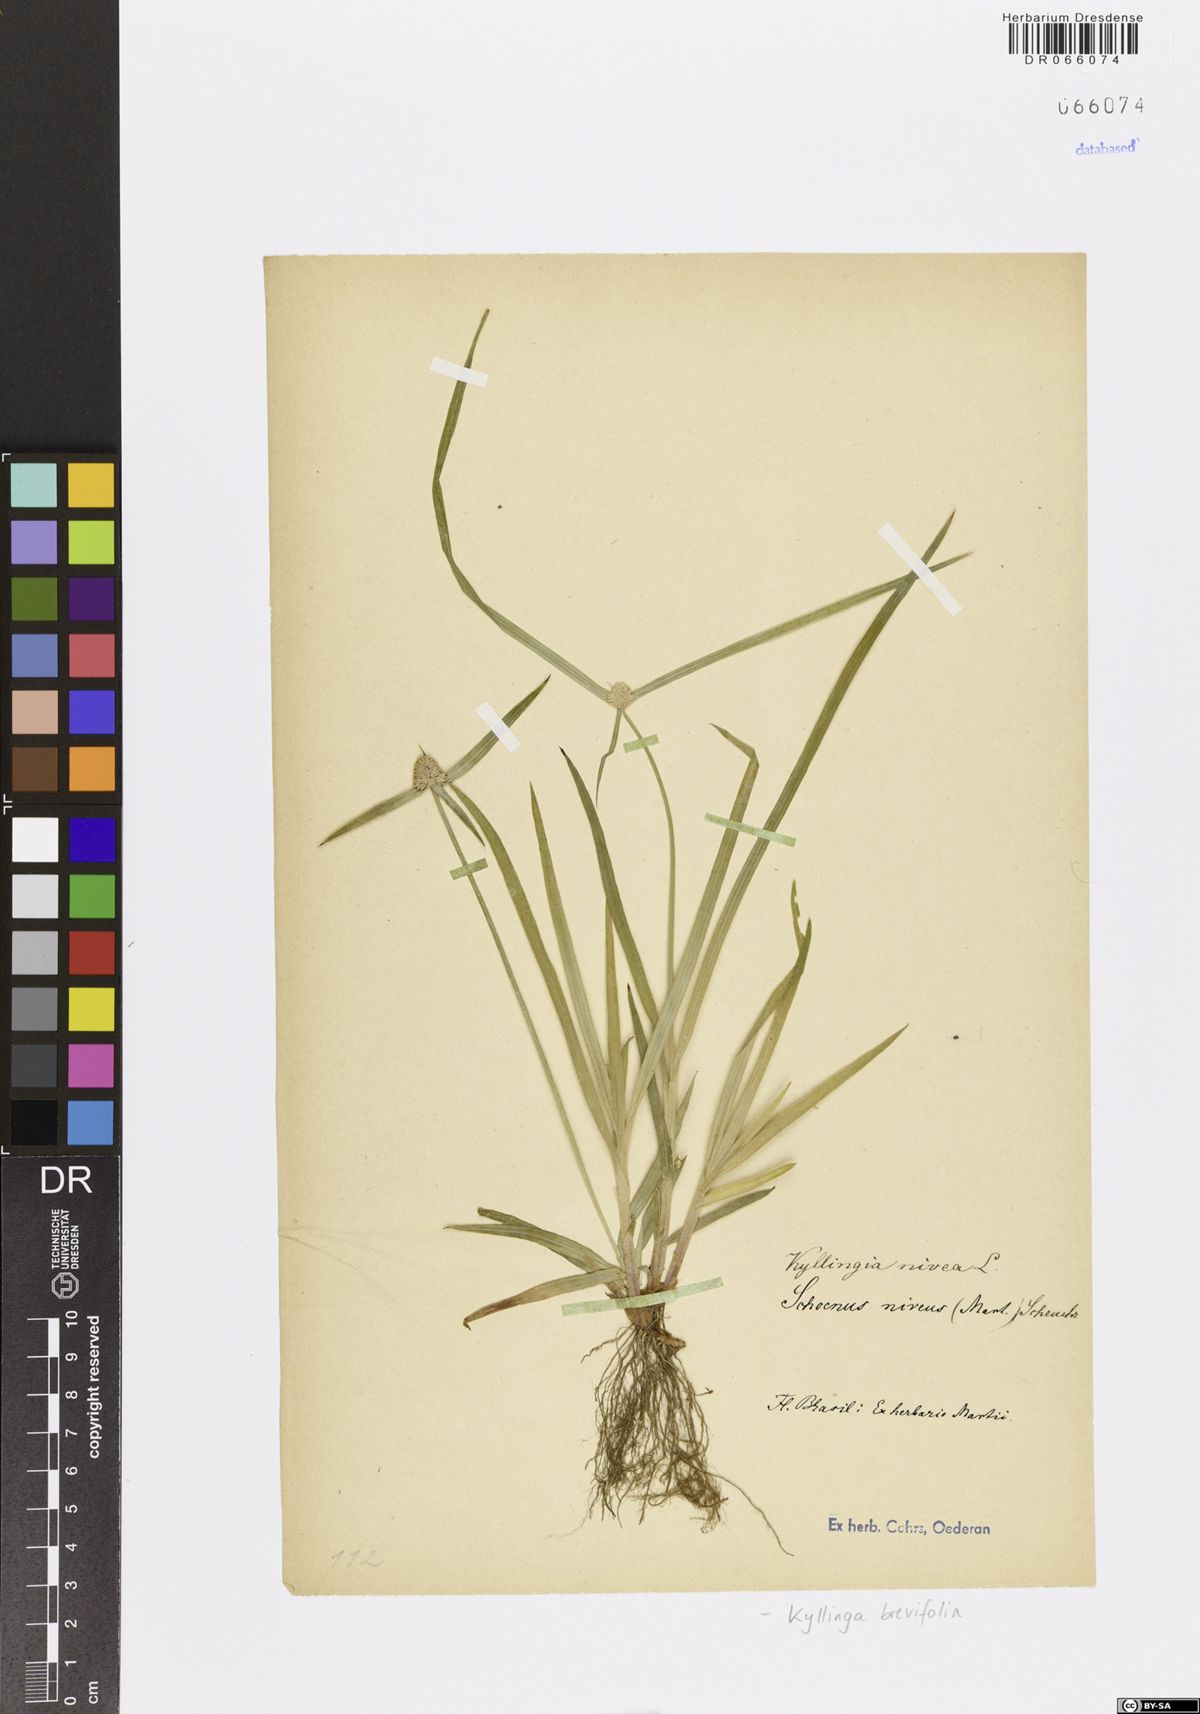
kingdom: Plantae
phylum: Tracheophyta
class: Liliopsida
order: Poales
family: Cyperaceae
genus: Cyperus
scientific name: Cyperus brevifolius
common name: Globe kyllinga
